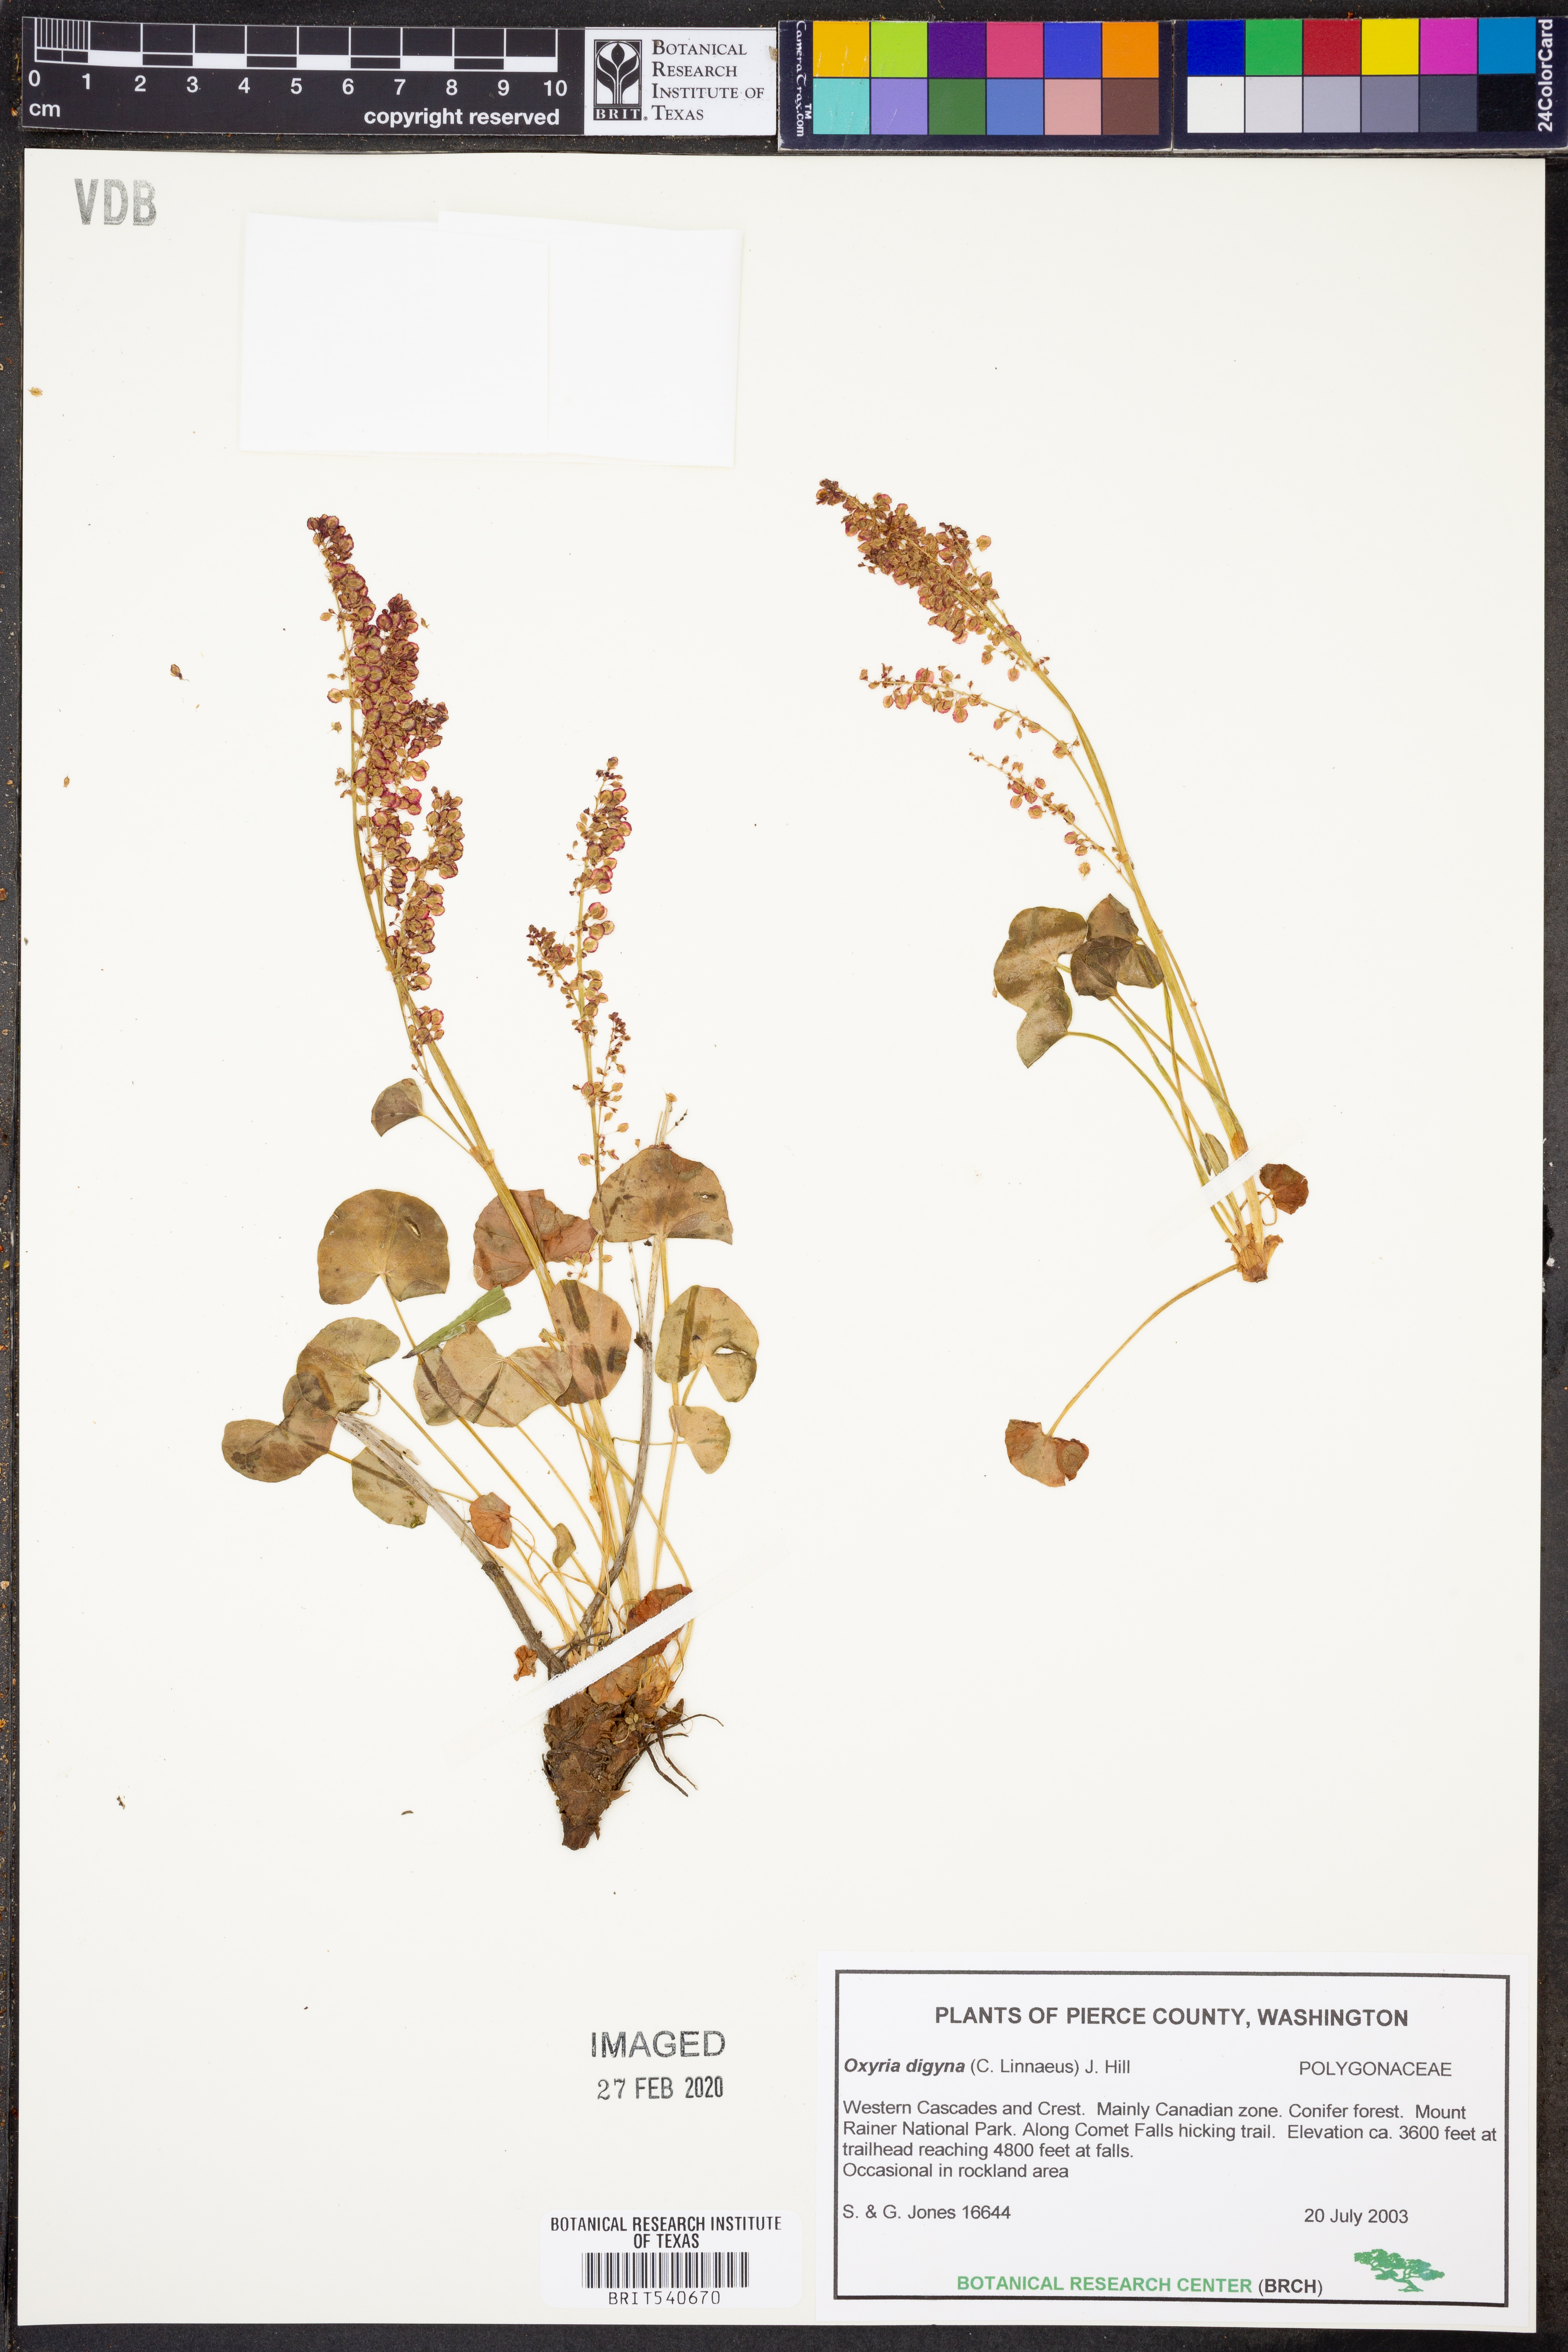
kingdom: Plantae
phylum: Tracheophyta
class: Magnoliopsida
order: Caryophyllales
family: Polygonaceae
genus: Oxyria
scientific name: Oxyria digyna
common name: Alpine mountain-sorrel
